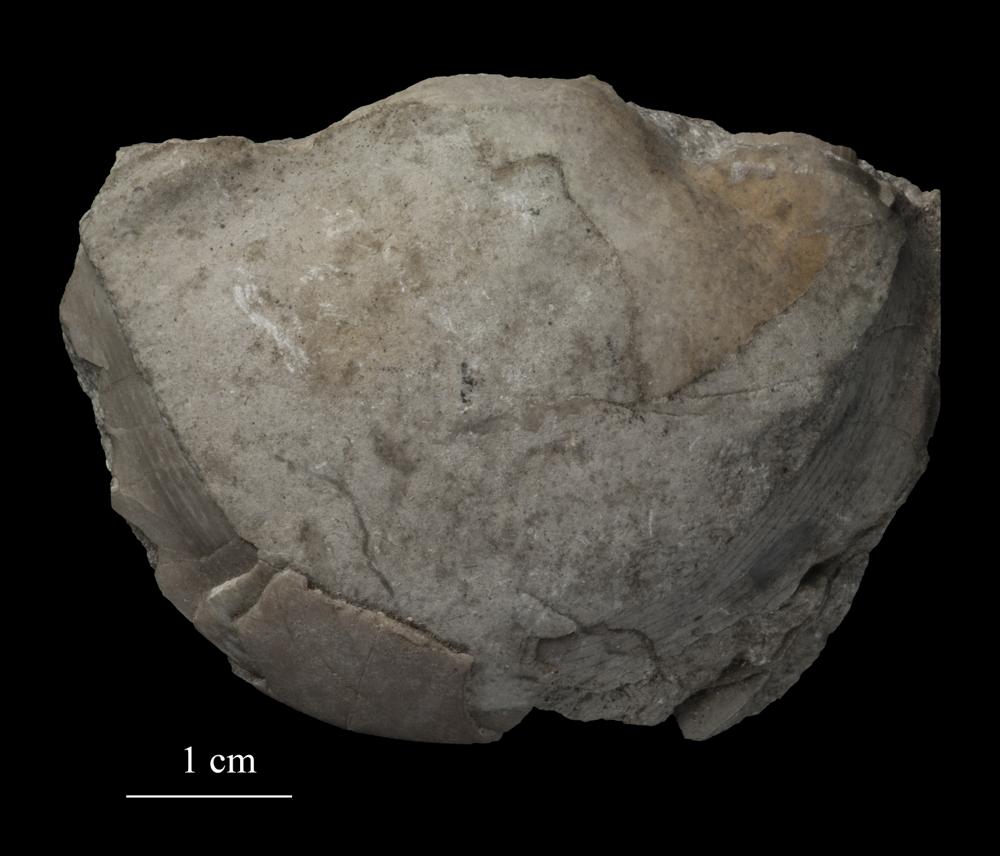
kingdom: Animalia
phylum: Arthropoda
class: Trilobita
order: Corynexochida
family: Illaenidae
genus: Illaenus
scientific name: Illaenus roemeri
